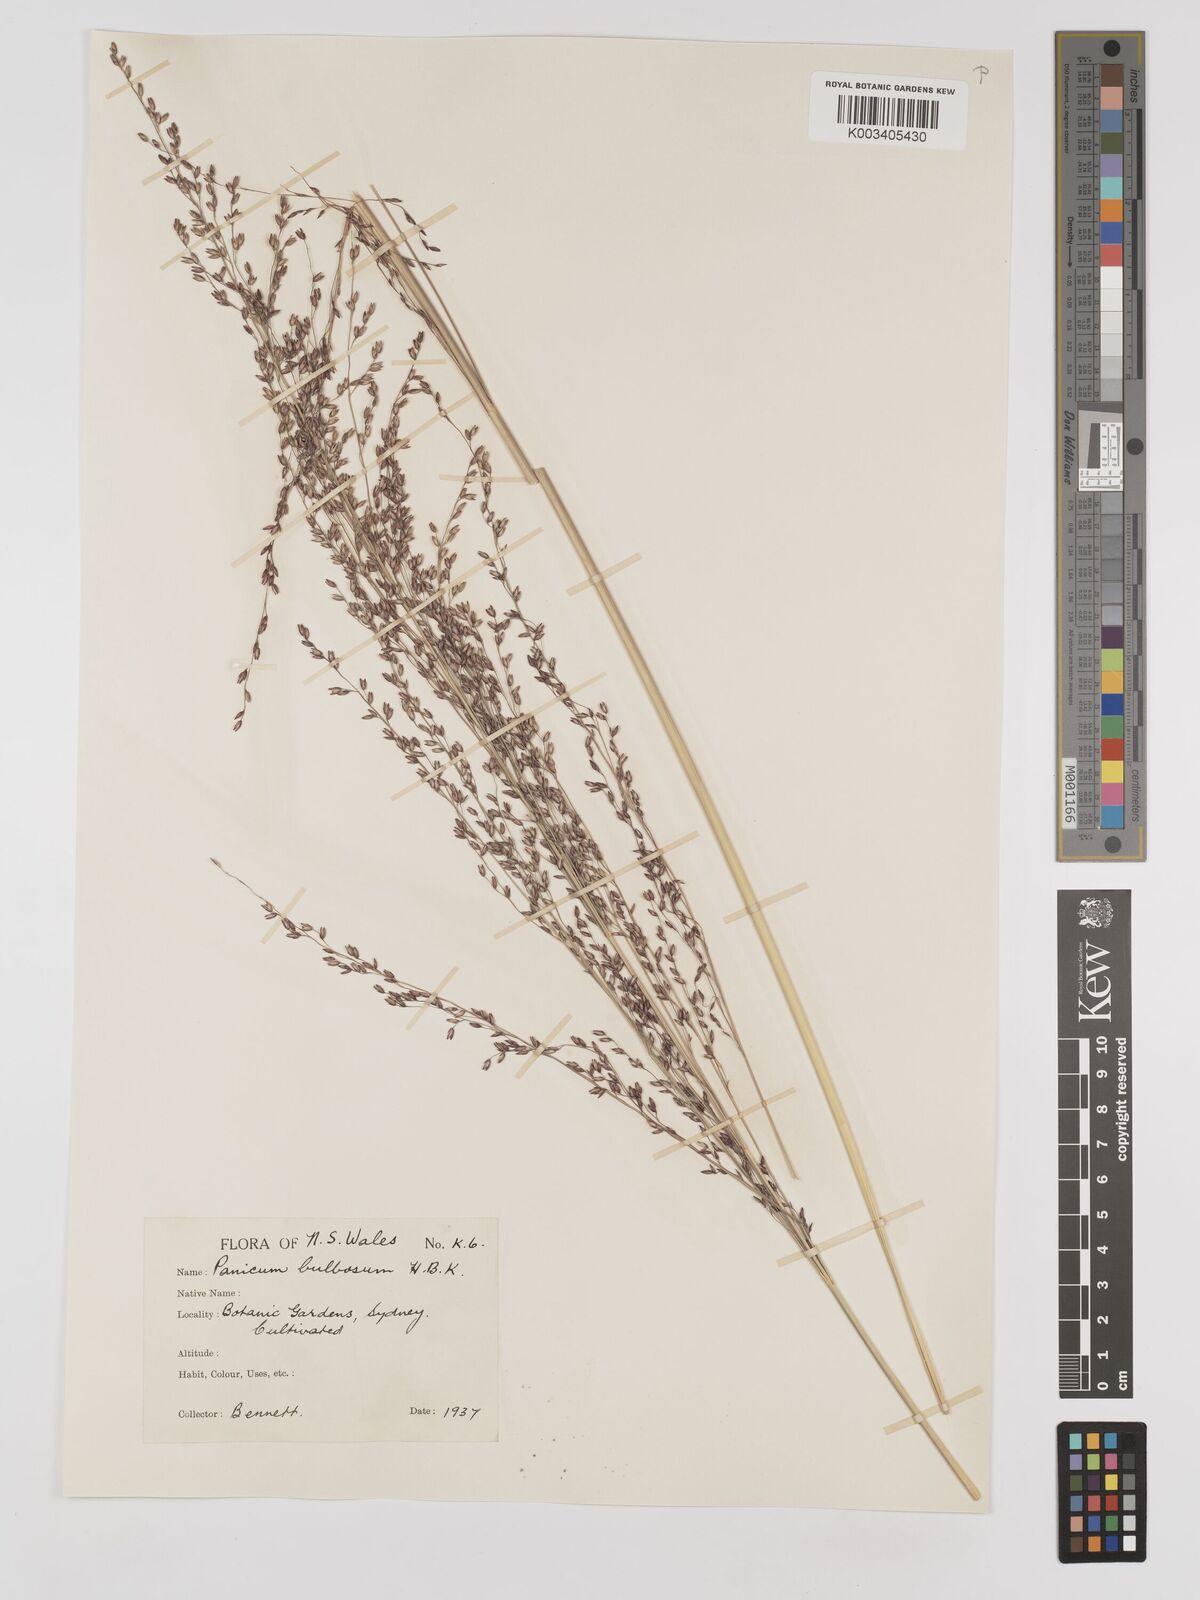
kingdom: Plantae
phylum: Tracheophyta
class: Liliopsida
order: Poales
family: Poaceae
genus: Zuloagaea
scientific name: Zuloagaea bulbosa
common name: Canyon panic grass
